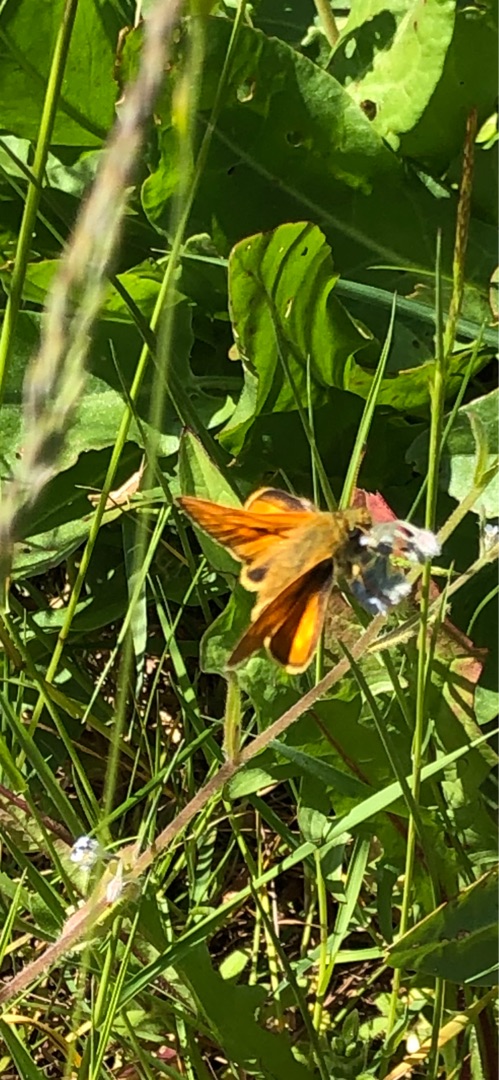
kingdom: Animalia
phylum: Arthropoda
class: Insecta
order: Lepidoptera
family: Hesperiidae
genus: Ochlodes
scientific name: Ochlodes venata
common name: Stor bredpande
